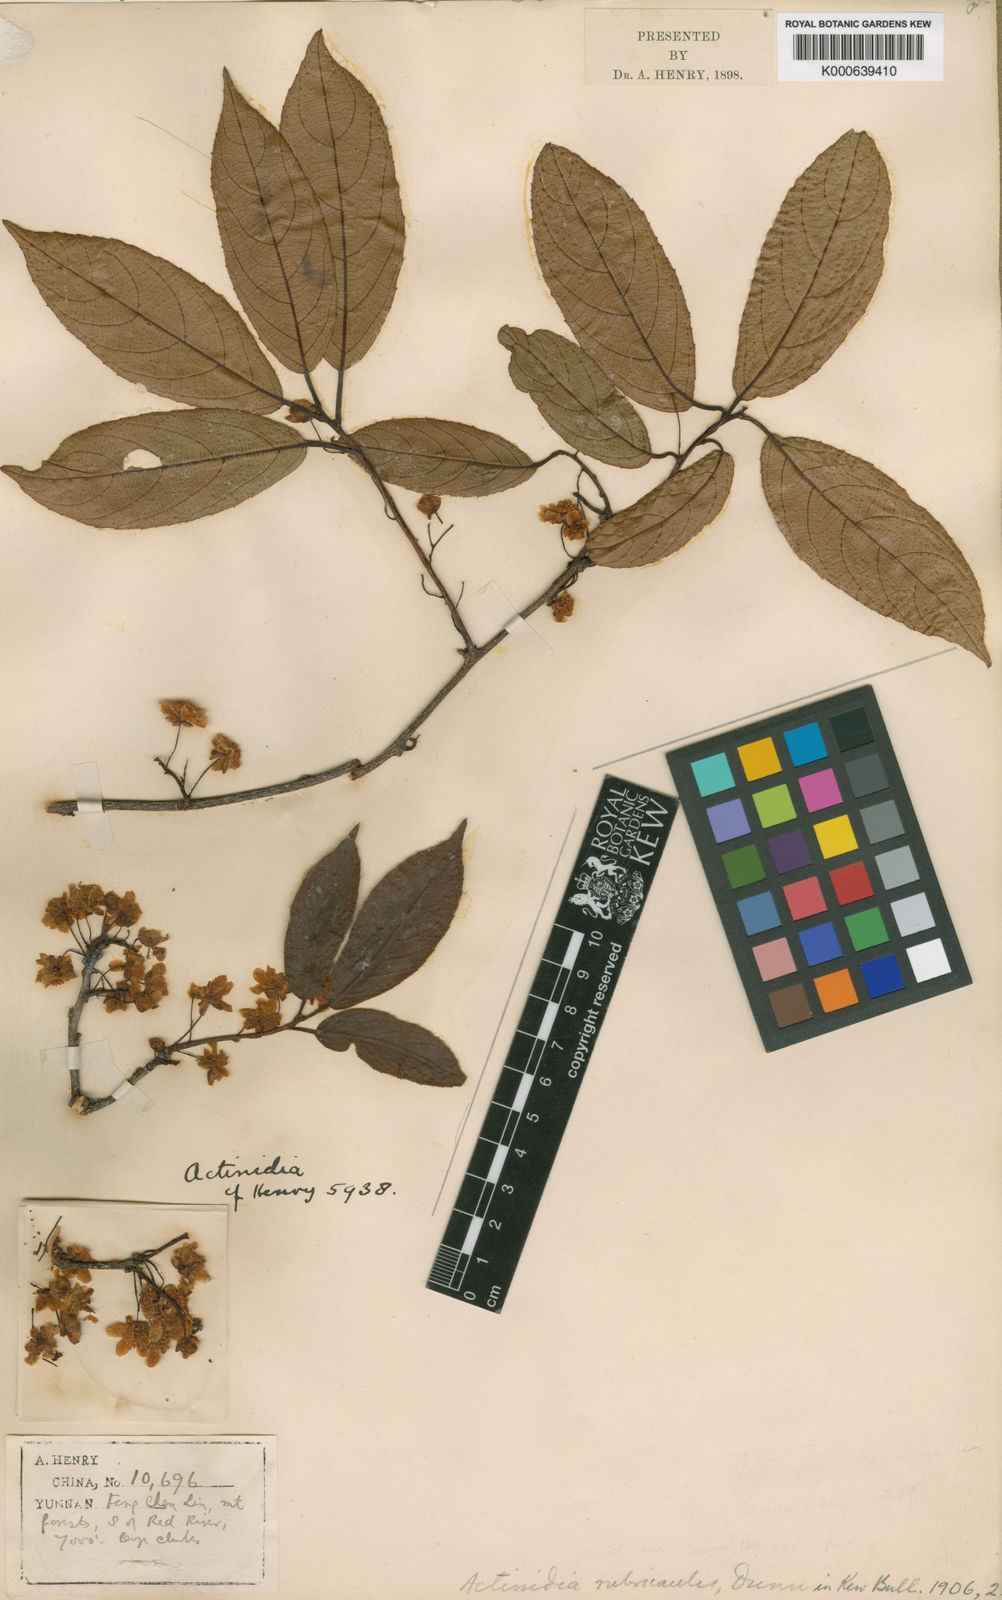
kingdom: Plantae
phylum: Tracheophyta
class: Magnoliopsida
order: Ericales
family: Actinidiaceae
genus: Actinidia
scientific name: Actinidia rubricaulis
